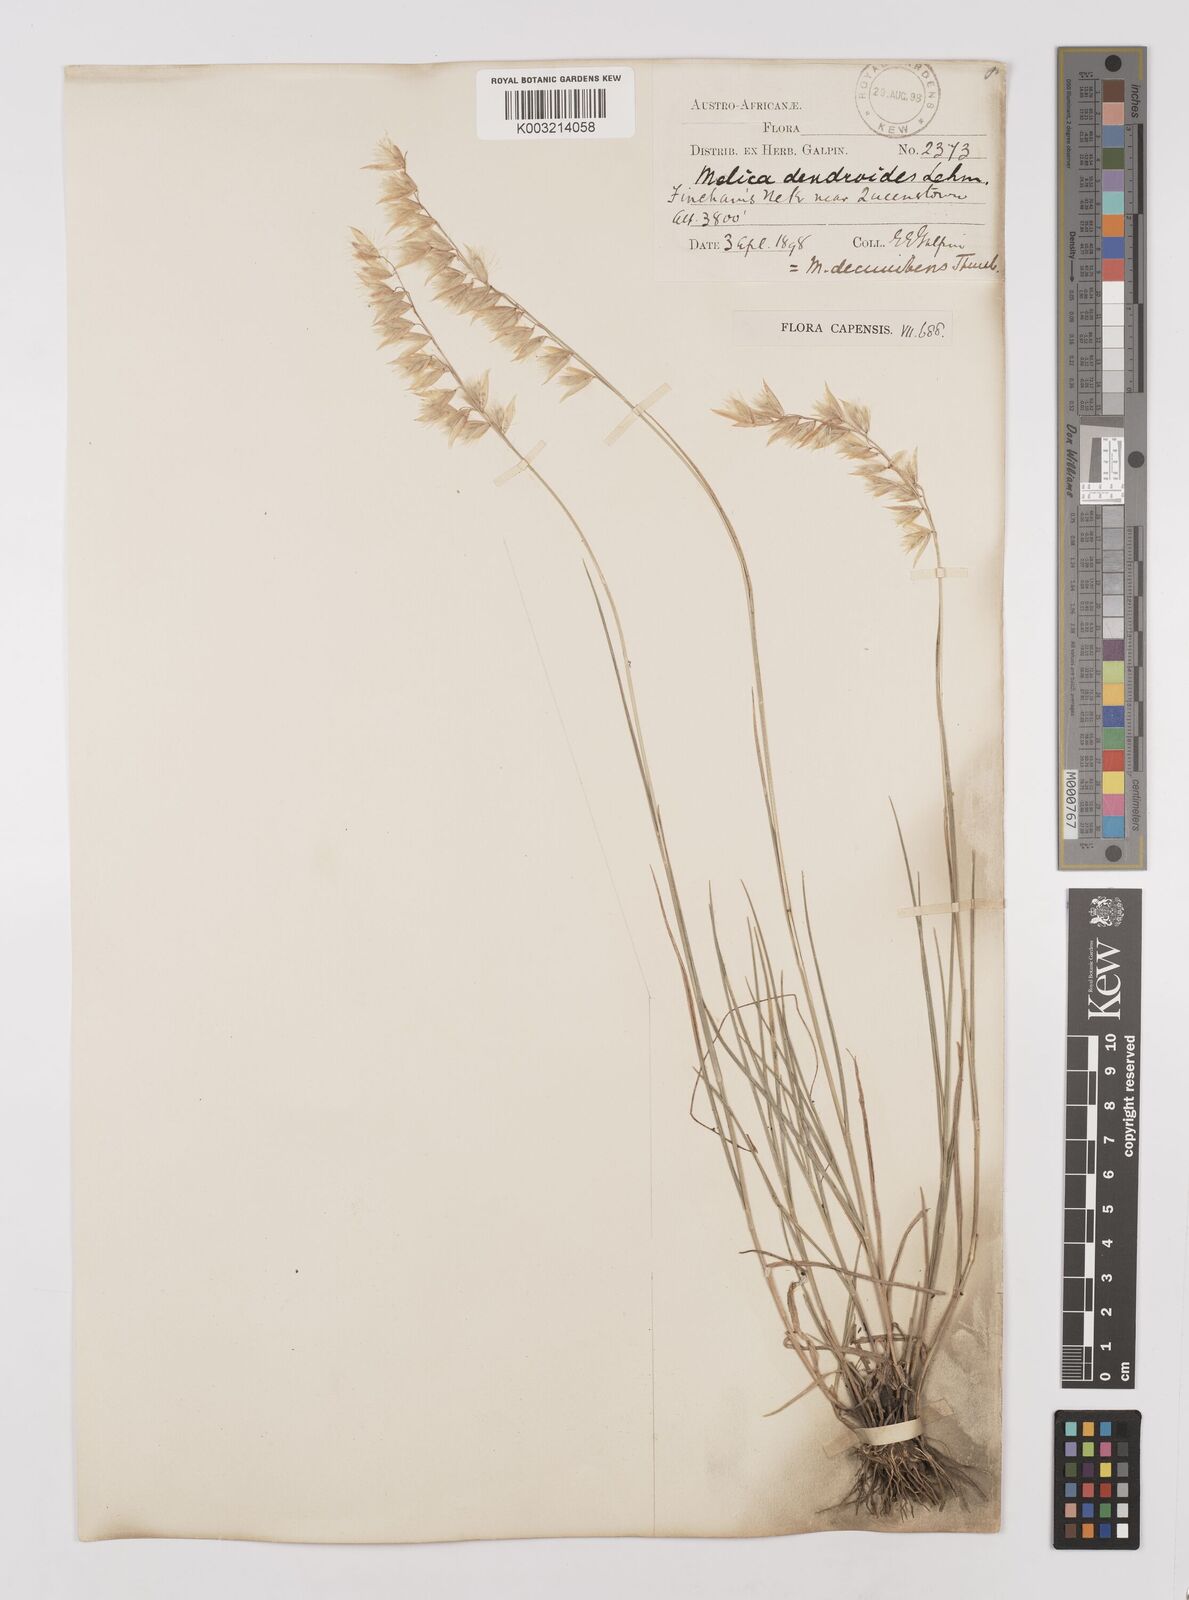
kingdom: Plantae
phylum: Tracheophyta
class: Liliopsida
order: Poales
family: Poaceae
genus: Melica
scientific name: Melica dendroides
